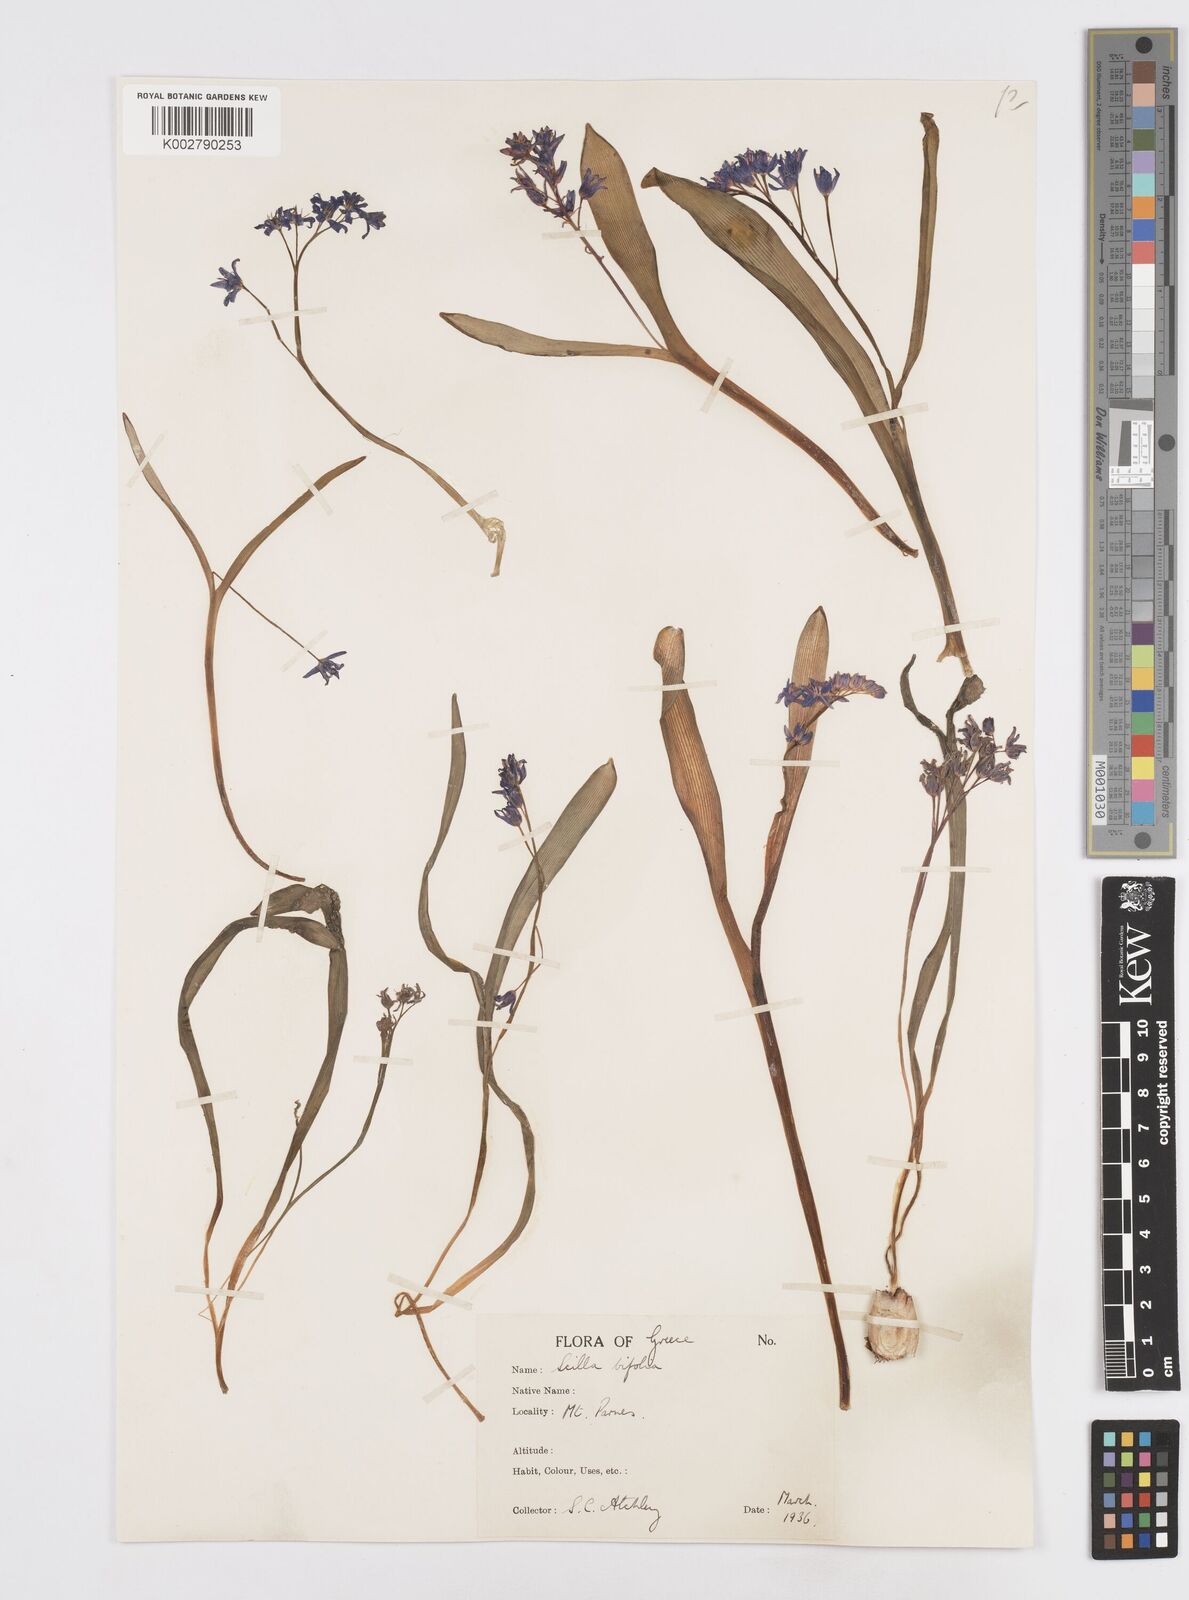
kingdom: Plantae
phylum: Tracheophyta
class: Liliopsida
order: Asparagales
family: Asparagaceae
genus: Scilla
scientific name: Scilla bifolia
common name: Alpine squill
